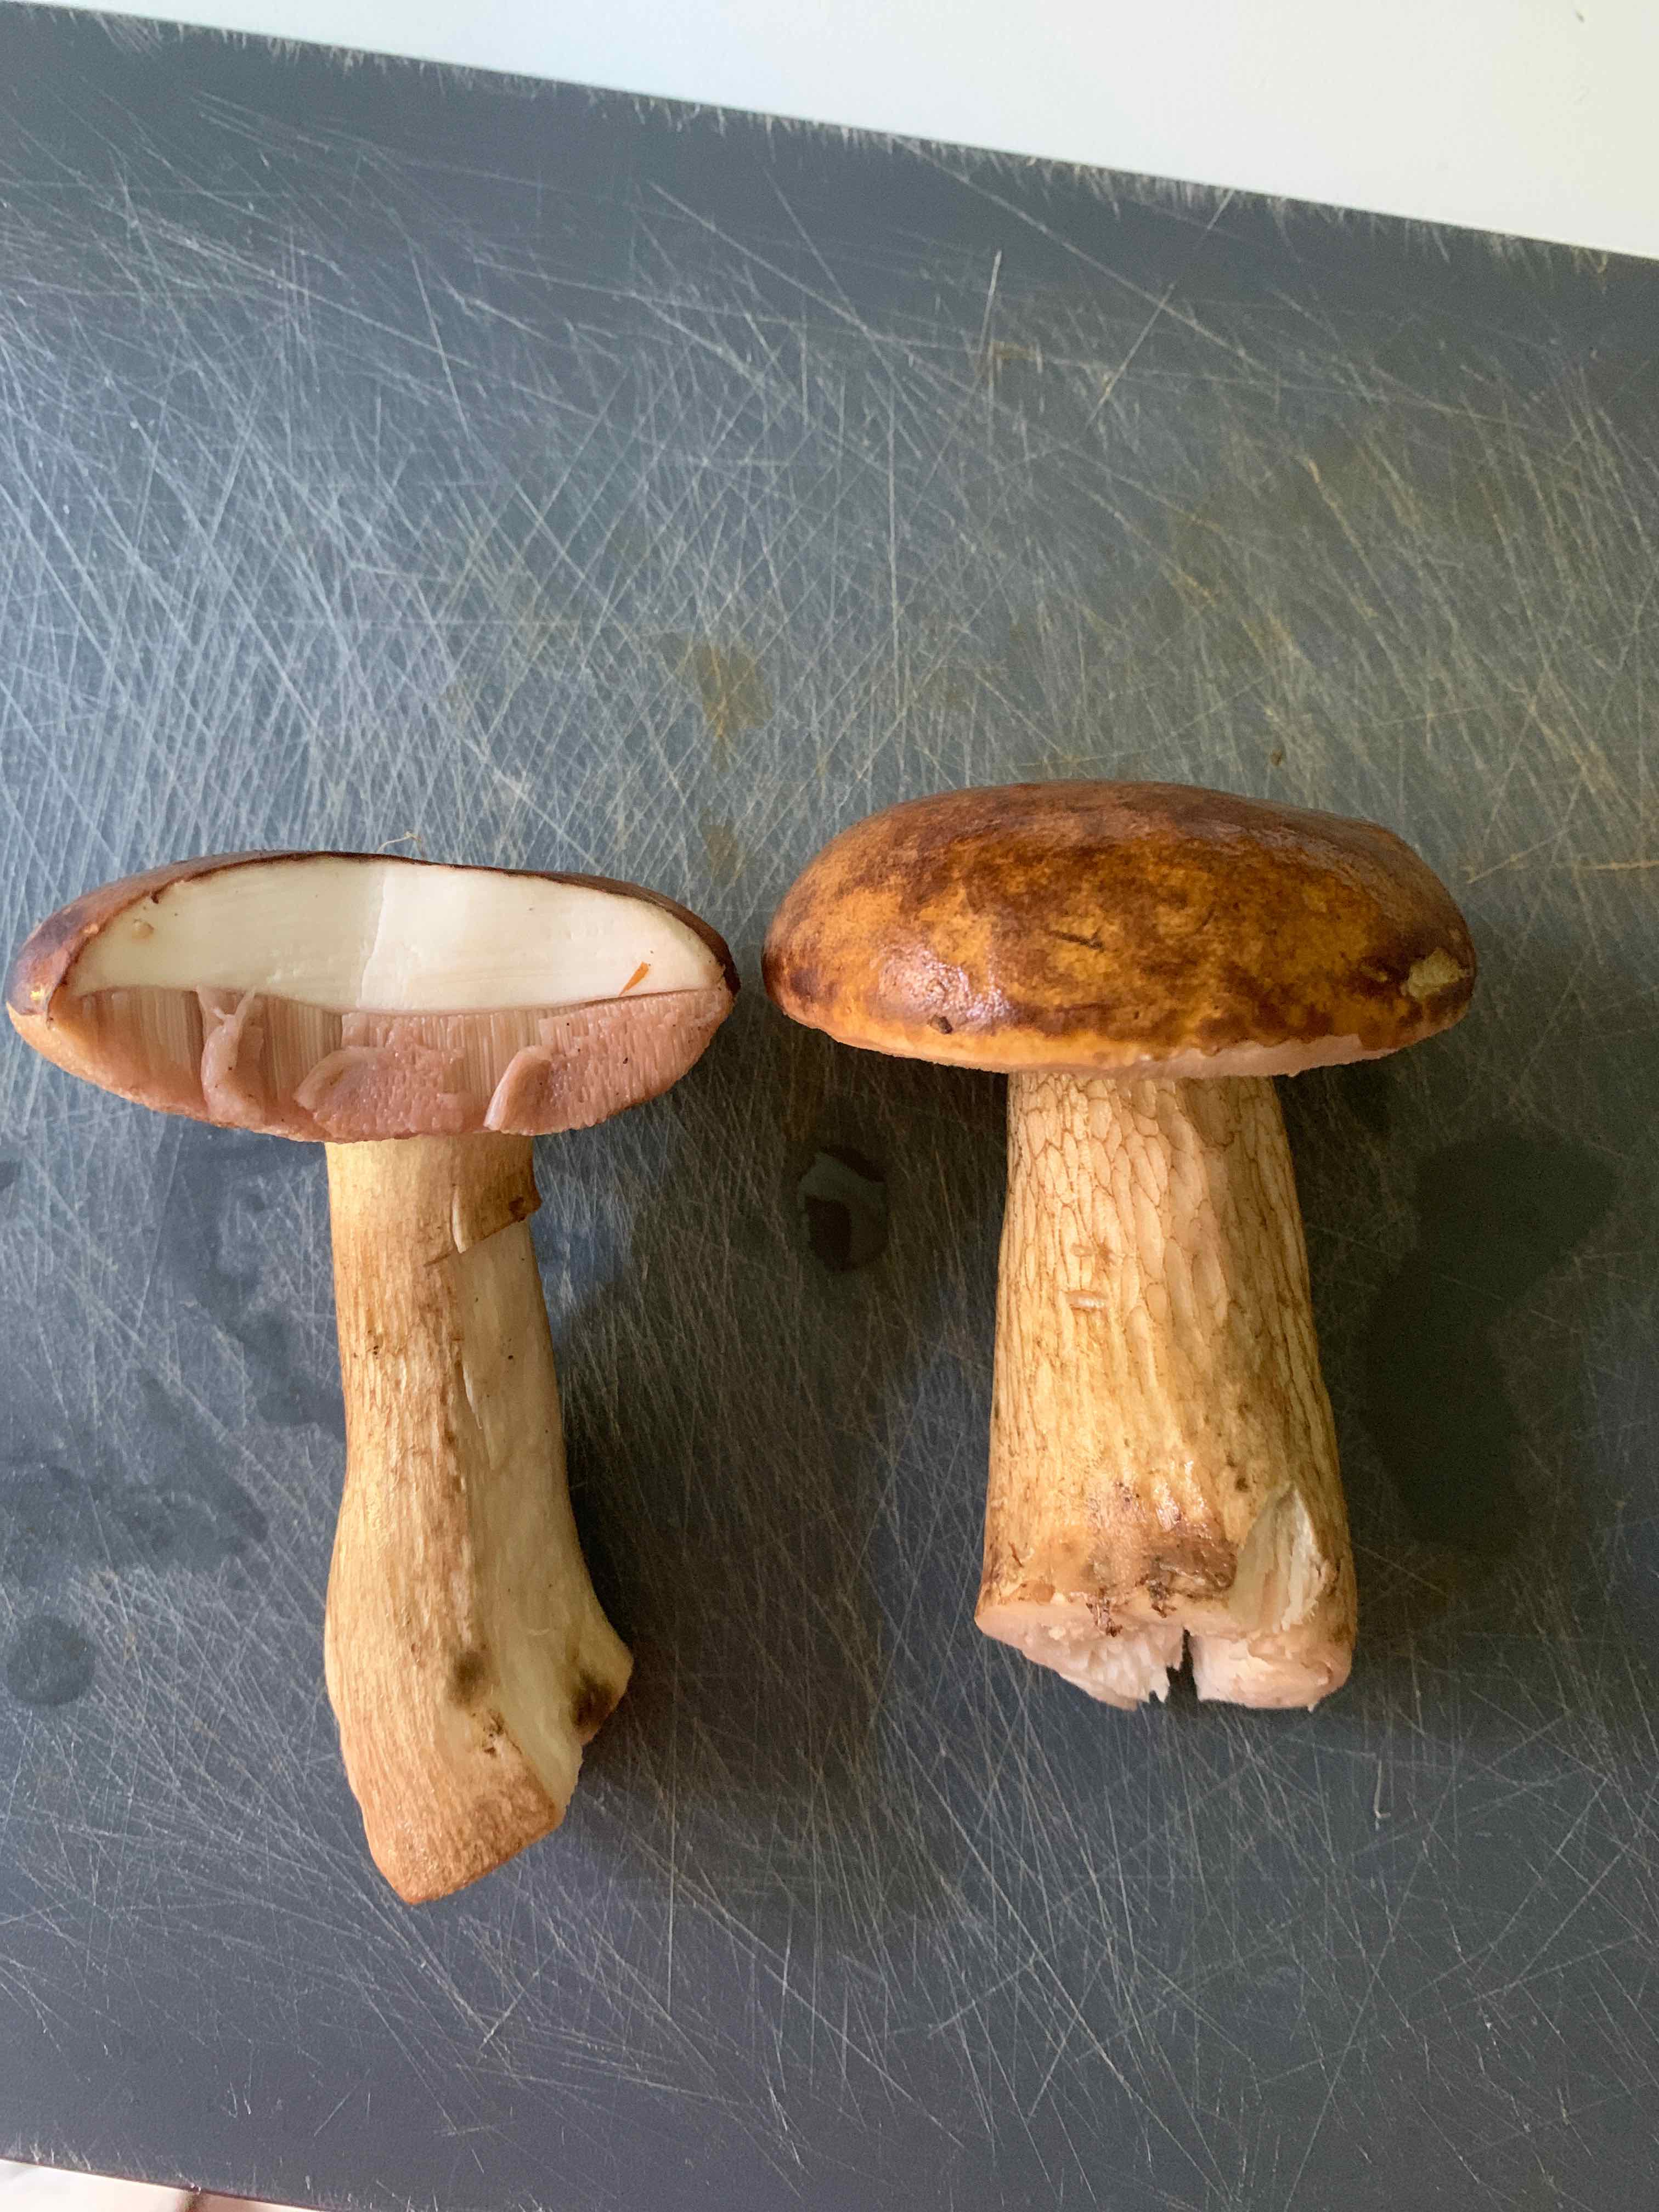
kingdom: Fungi
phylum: Basidiomycota
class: Agaricomycetes
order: Boletales
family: Boletaceae
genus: Tylopilus
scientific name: Tylopilus felleus
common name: galderørhat
